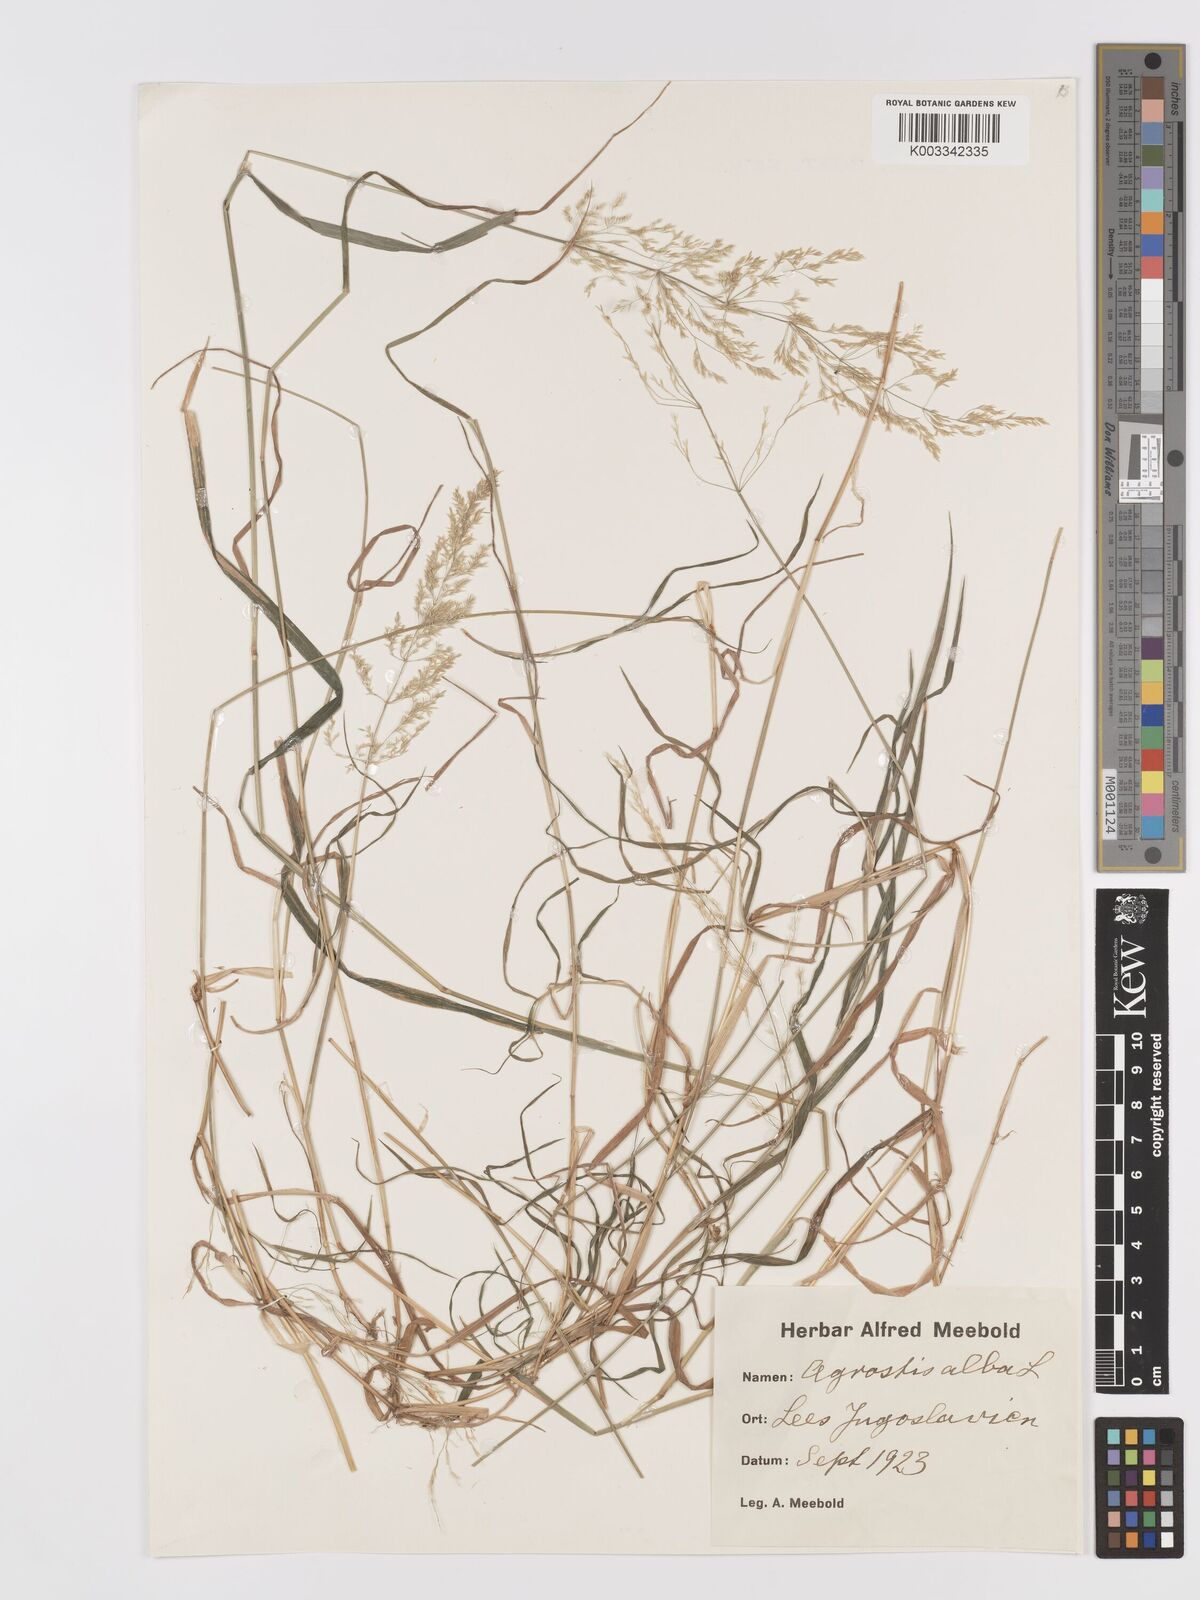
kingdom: Plantae
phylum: Tracheophyta
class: Liliopsida
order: Poales
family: Poaceae
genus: Agrostis
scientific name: Agrostis gigantea
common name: Black bent
